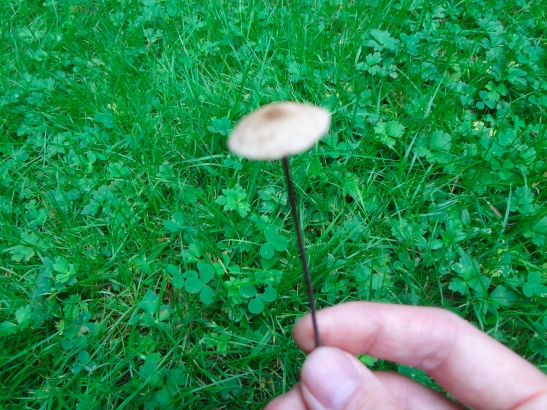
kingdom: Fungi
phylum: Basidiomycota
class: Agaricomycetes
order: Agaricales
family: Omphalotaceae
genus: Mycetinis
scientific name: Mycetinis alliaceus
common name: stor løghat
